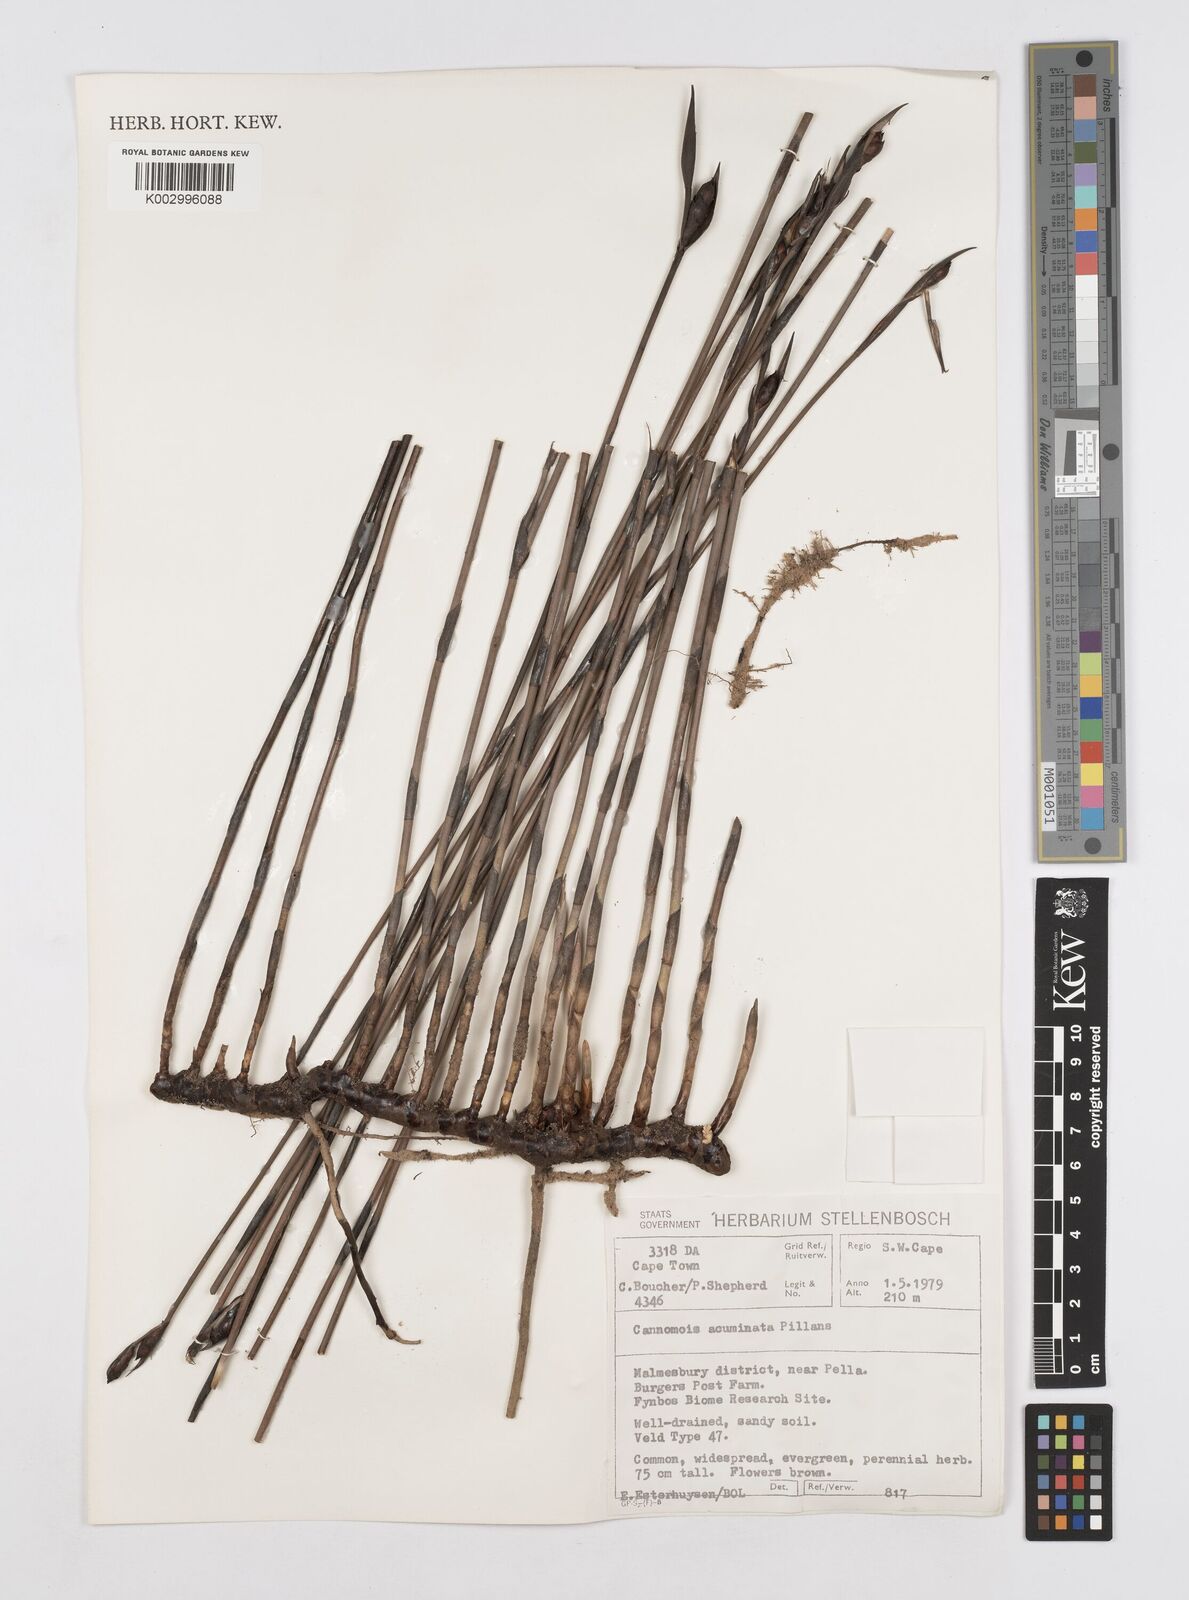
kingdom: Plantae
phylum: Tracheophyta
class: Liliopsida
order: Poales
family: Restionaceae
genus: Cannomois
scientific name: Cannomois parviflora
